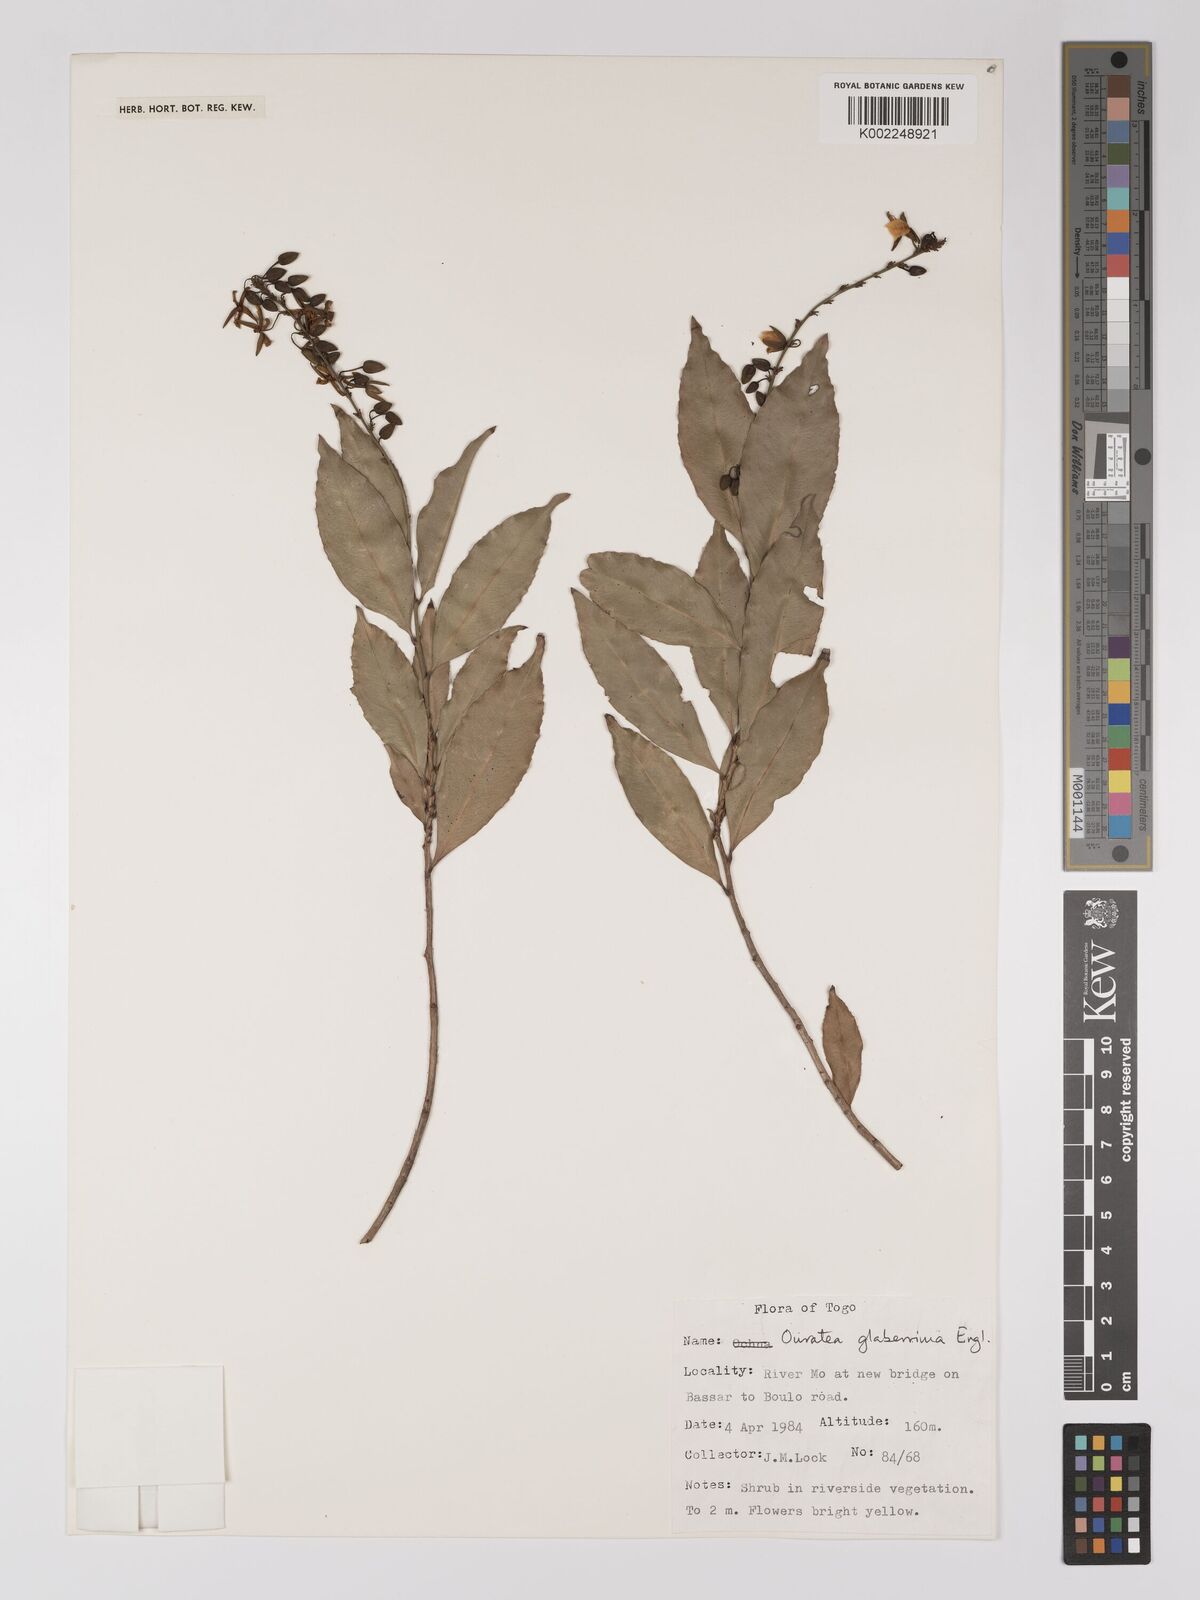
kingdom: Plantae
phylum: Tracheophyta
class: Magnoliopsida
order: Malpighiales
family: Ochnaceae
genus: Campylospermum
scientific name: Campylospermum glaberrimum
